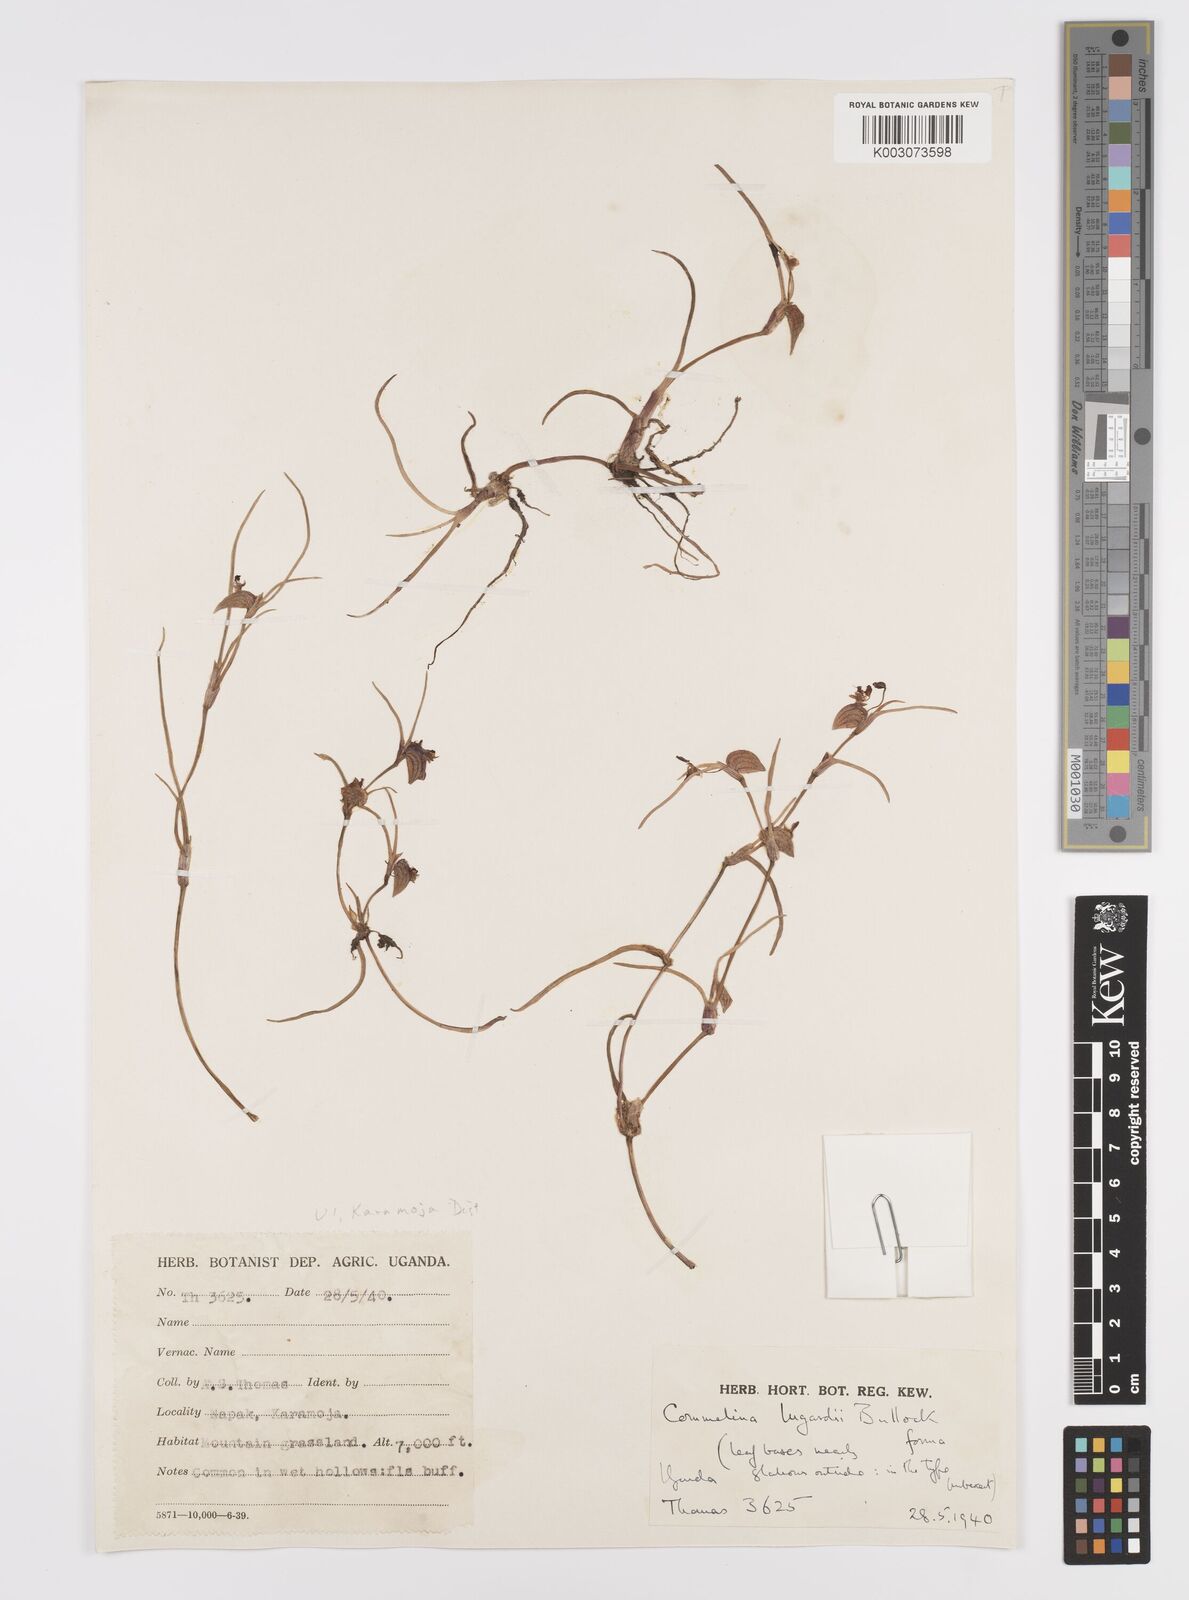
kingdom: Plantae
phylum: Tracheophyta
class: Liliopsida
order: Commelinales
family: Commelinaceae
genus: Commelina
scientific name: Commelina purpurea
